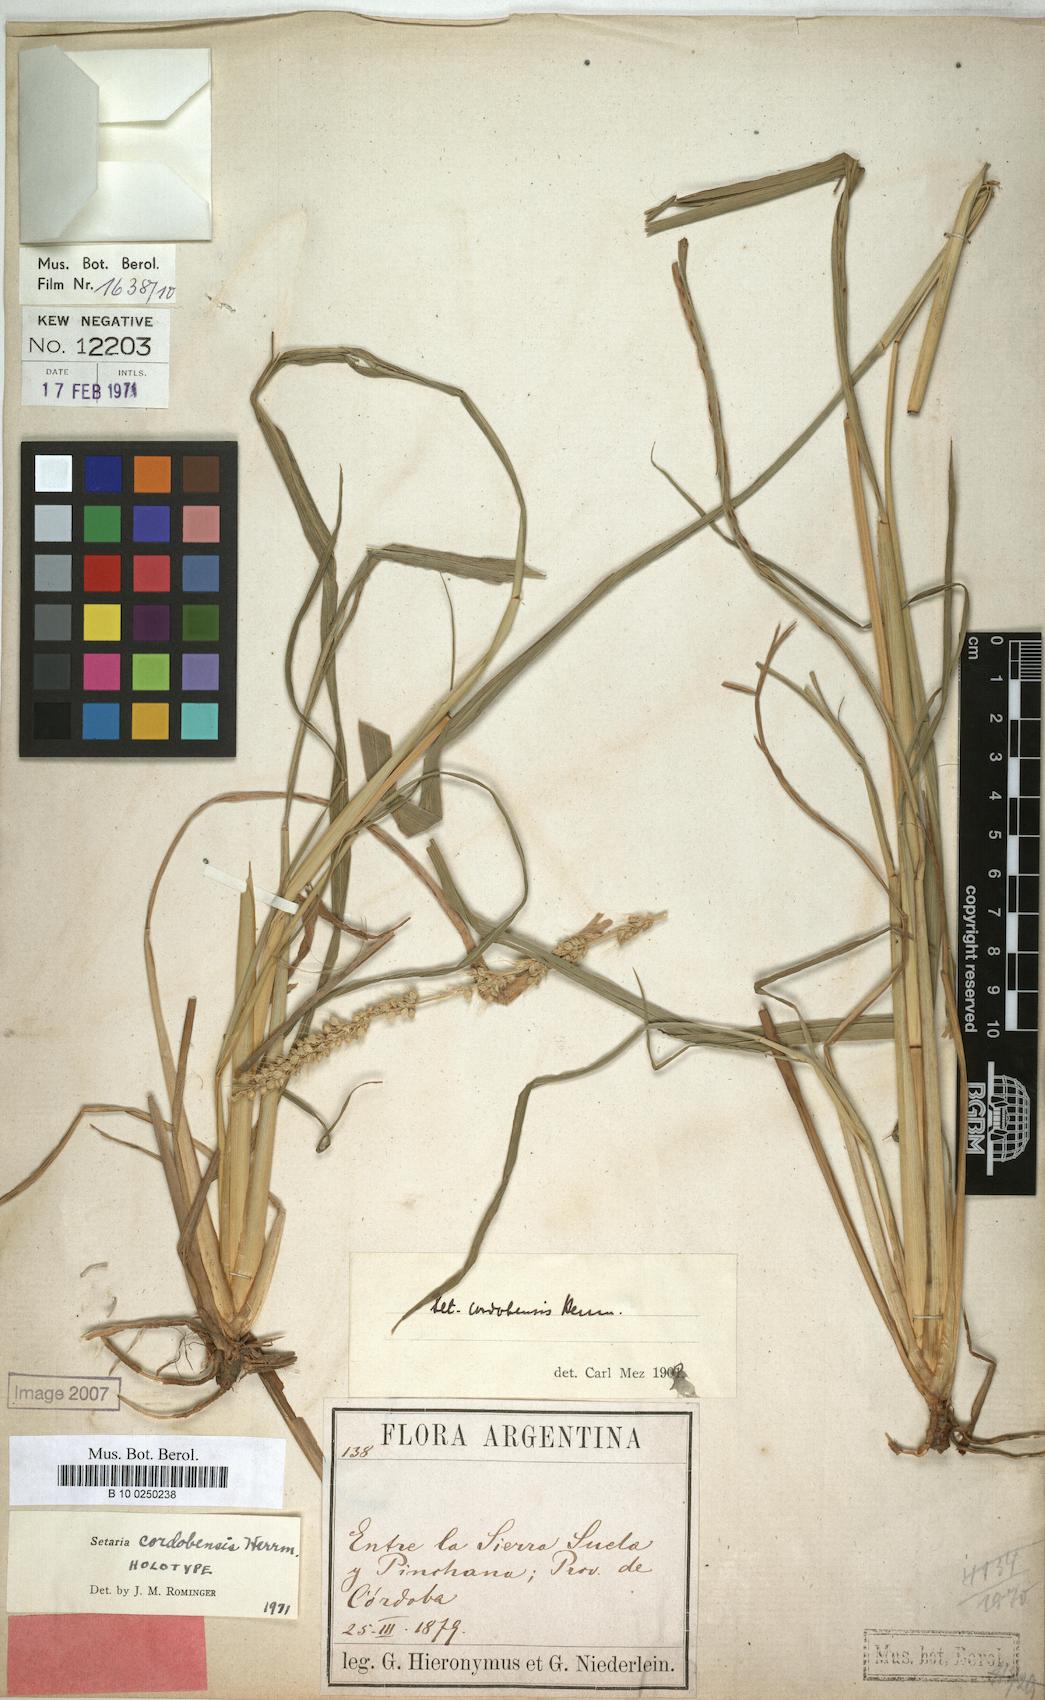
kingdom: Plantae
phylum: Tracheophyta
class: Liliopsida
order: Poales
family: Poaceae
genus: Setaria
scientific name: Setaria cordobensis
